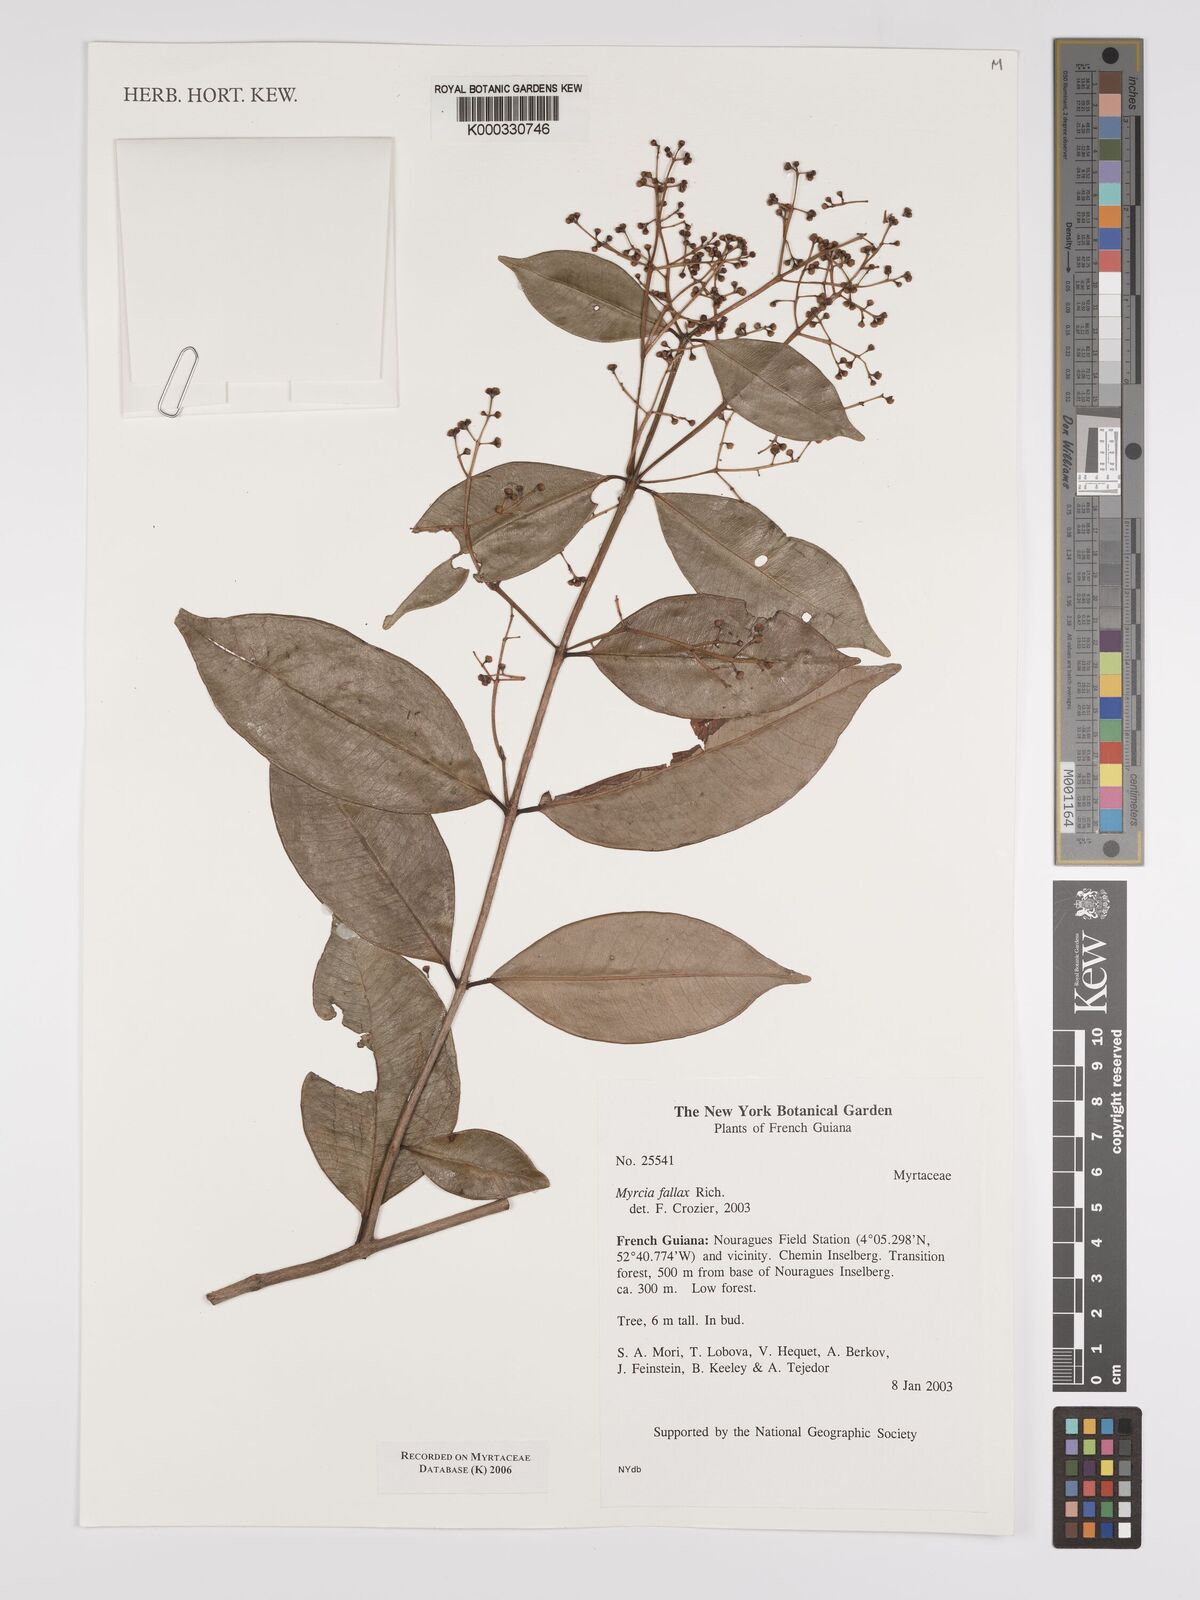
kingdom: Plantae
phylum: Tracheophyta
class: Magnoliopsida
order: Myrtales
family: Myrtaceae
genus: Myrcia
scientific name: Myrcia splendens
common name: Surinam cherry
